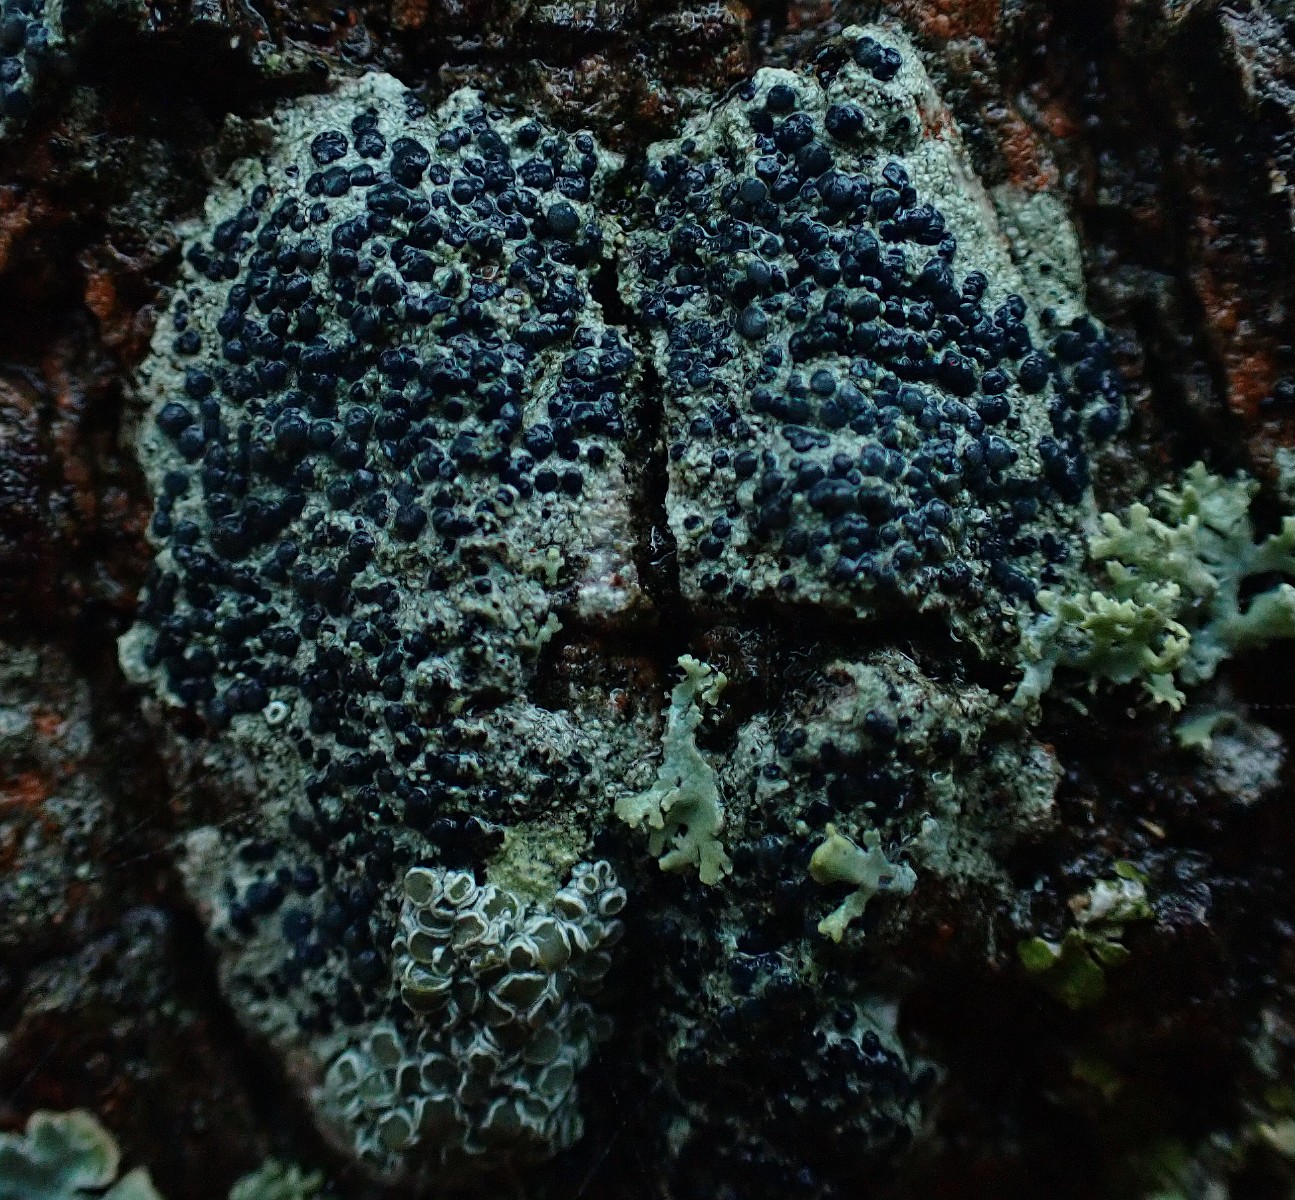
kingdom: Fungi
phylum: Ascomycota
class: Lecanoromycetes
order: Lecanorales
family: Lecanoraceae
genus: Lecidella
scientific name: Lecidella elaeochroma
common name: grågrøn skivelav
